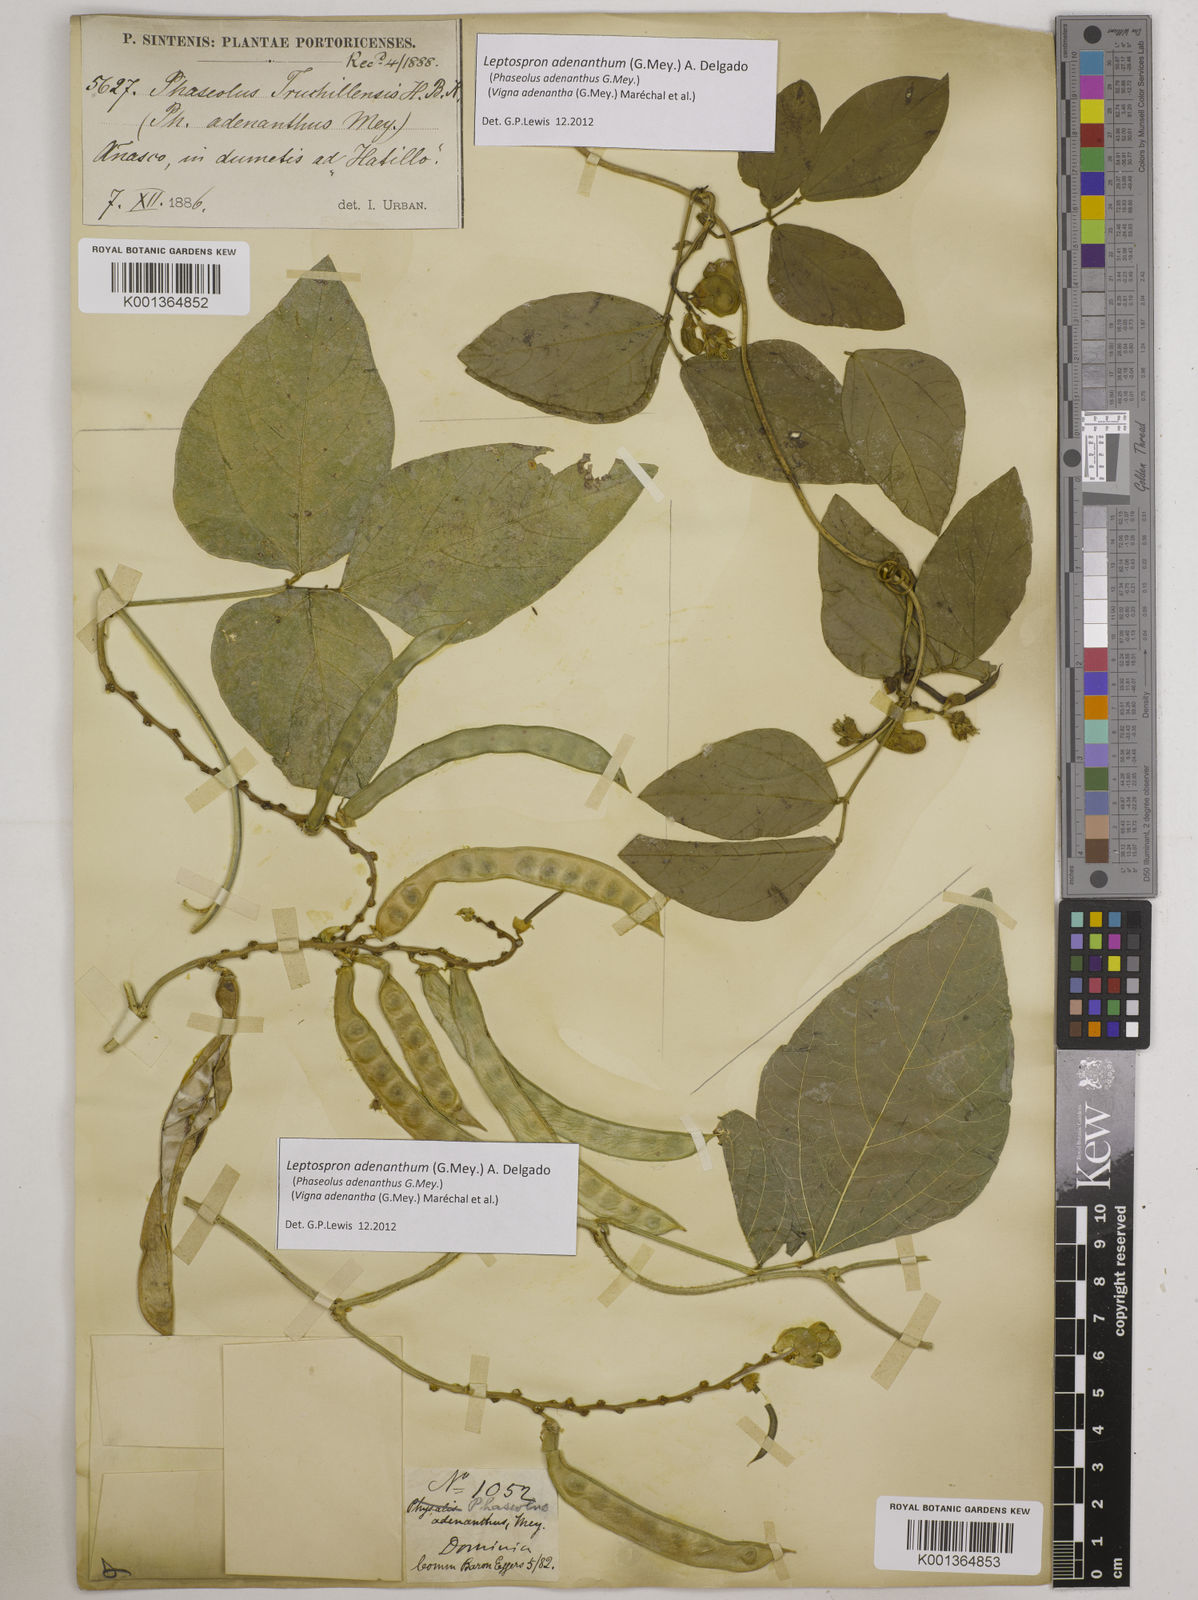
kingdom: Plantae
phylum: Tracheophyta
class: Magnoliopsida
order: Fabales
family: Fabaceae
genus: Leptospron
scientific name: Leptospron adenanthum
